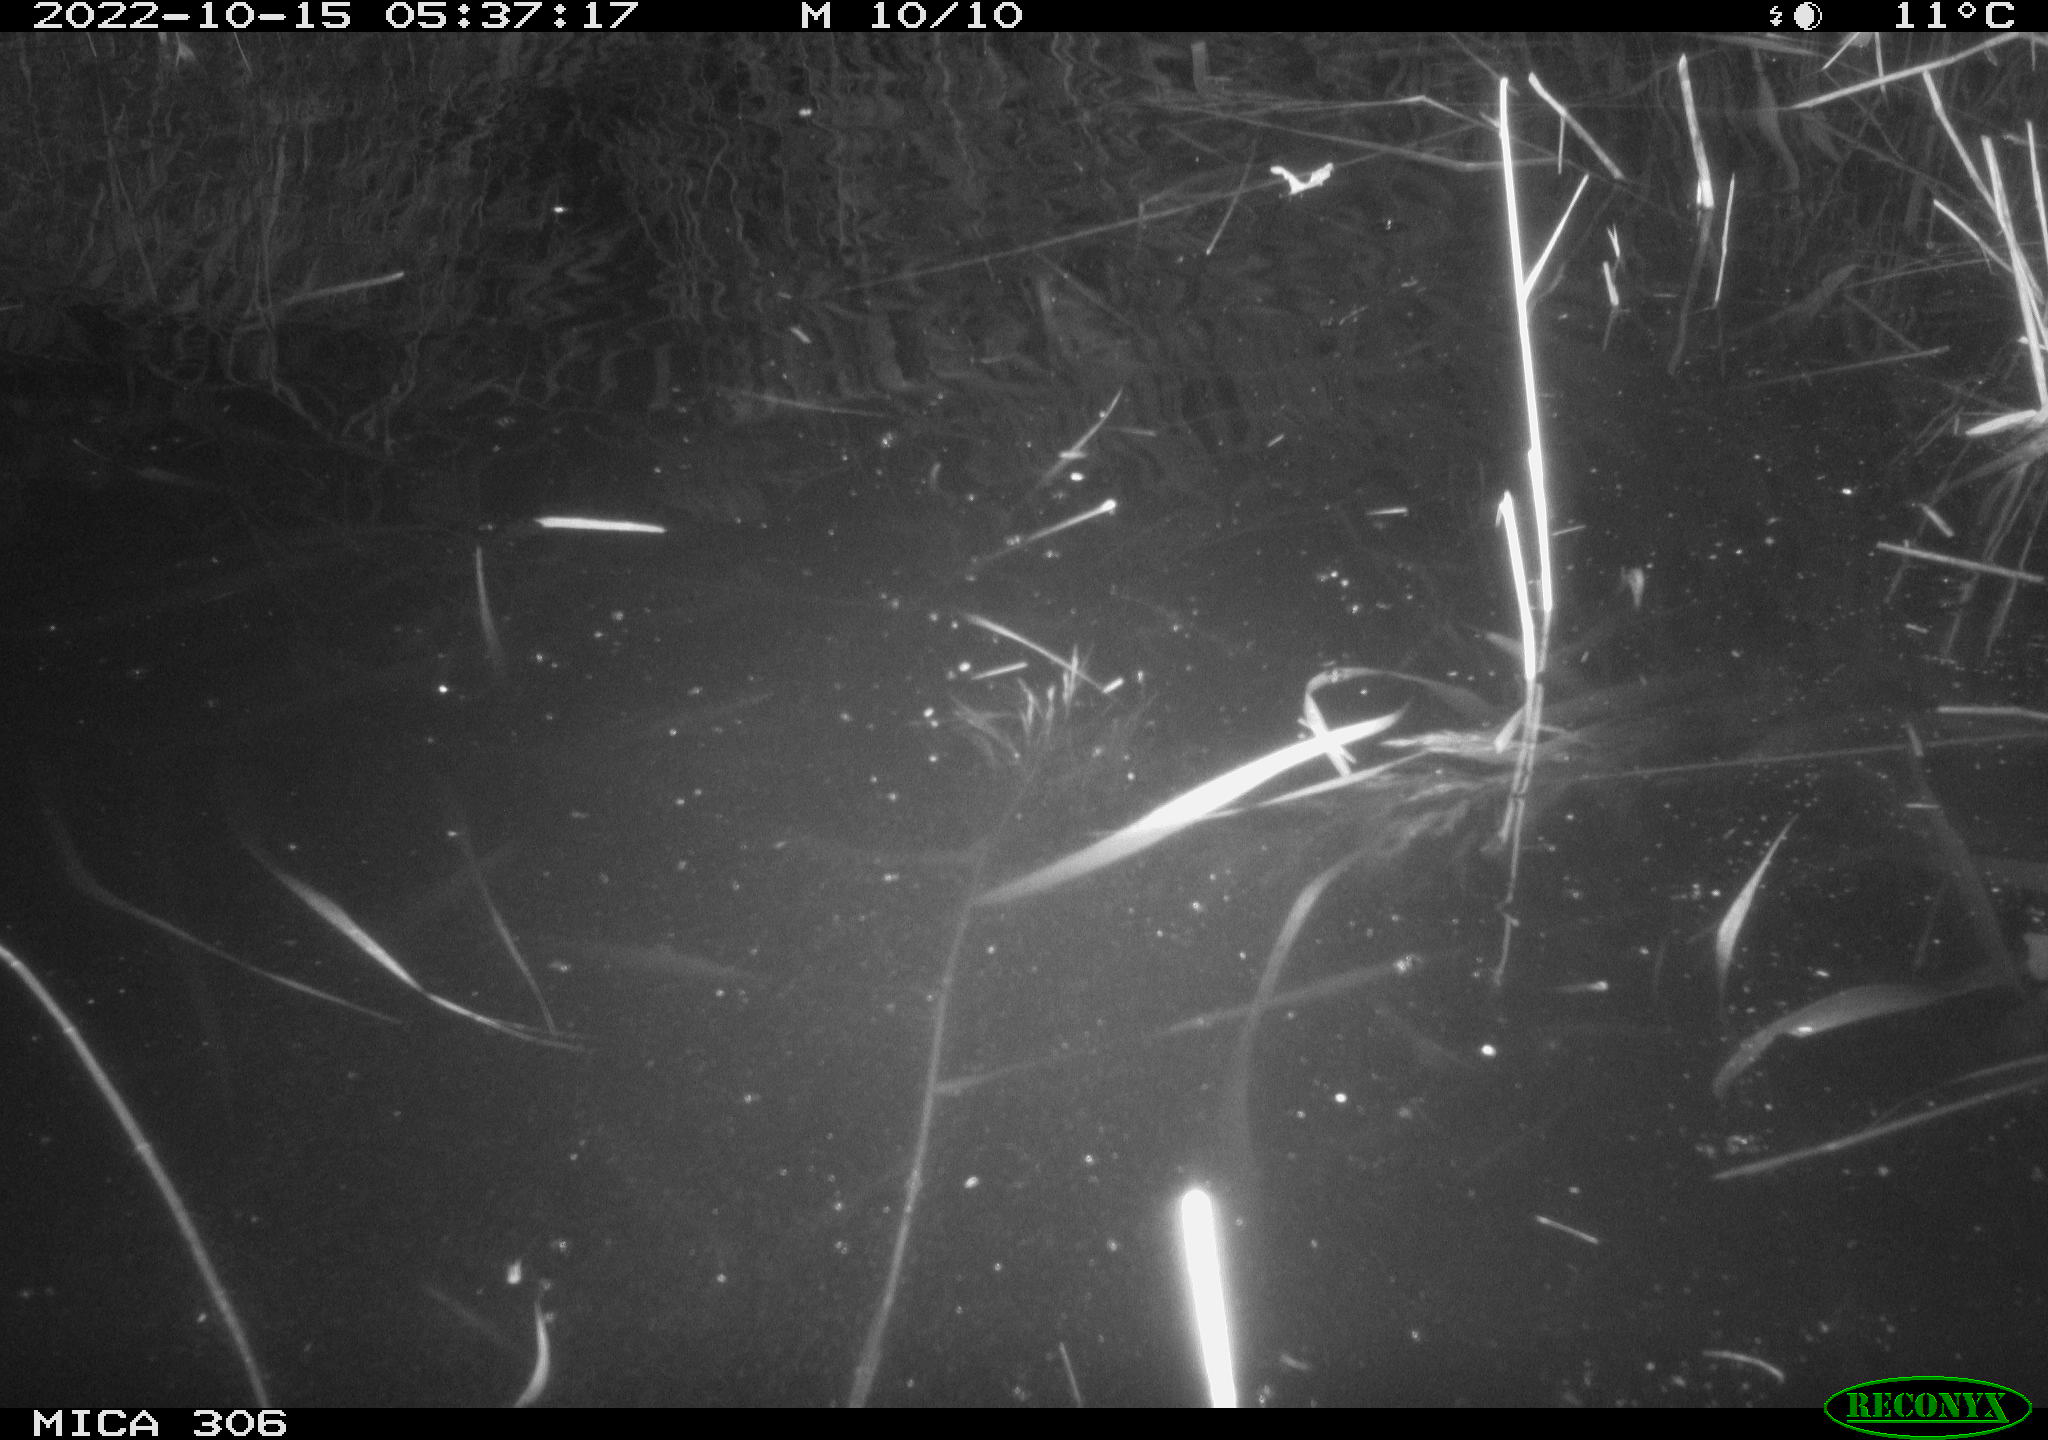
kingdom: Animalia
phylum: Chordata
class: Mammalia
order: Rodentia
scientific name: Rodentia
